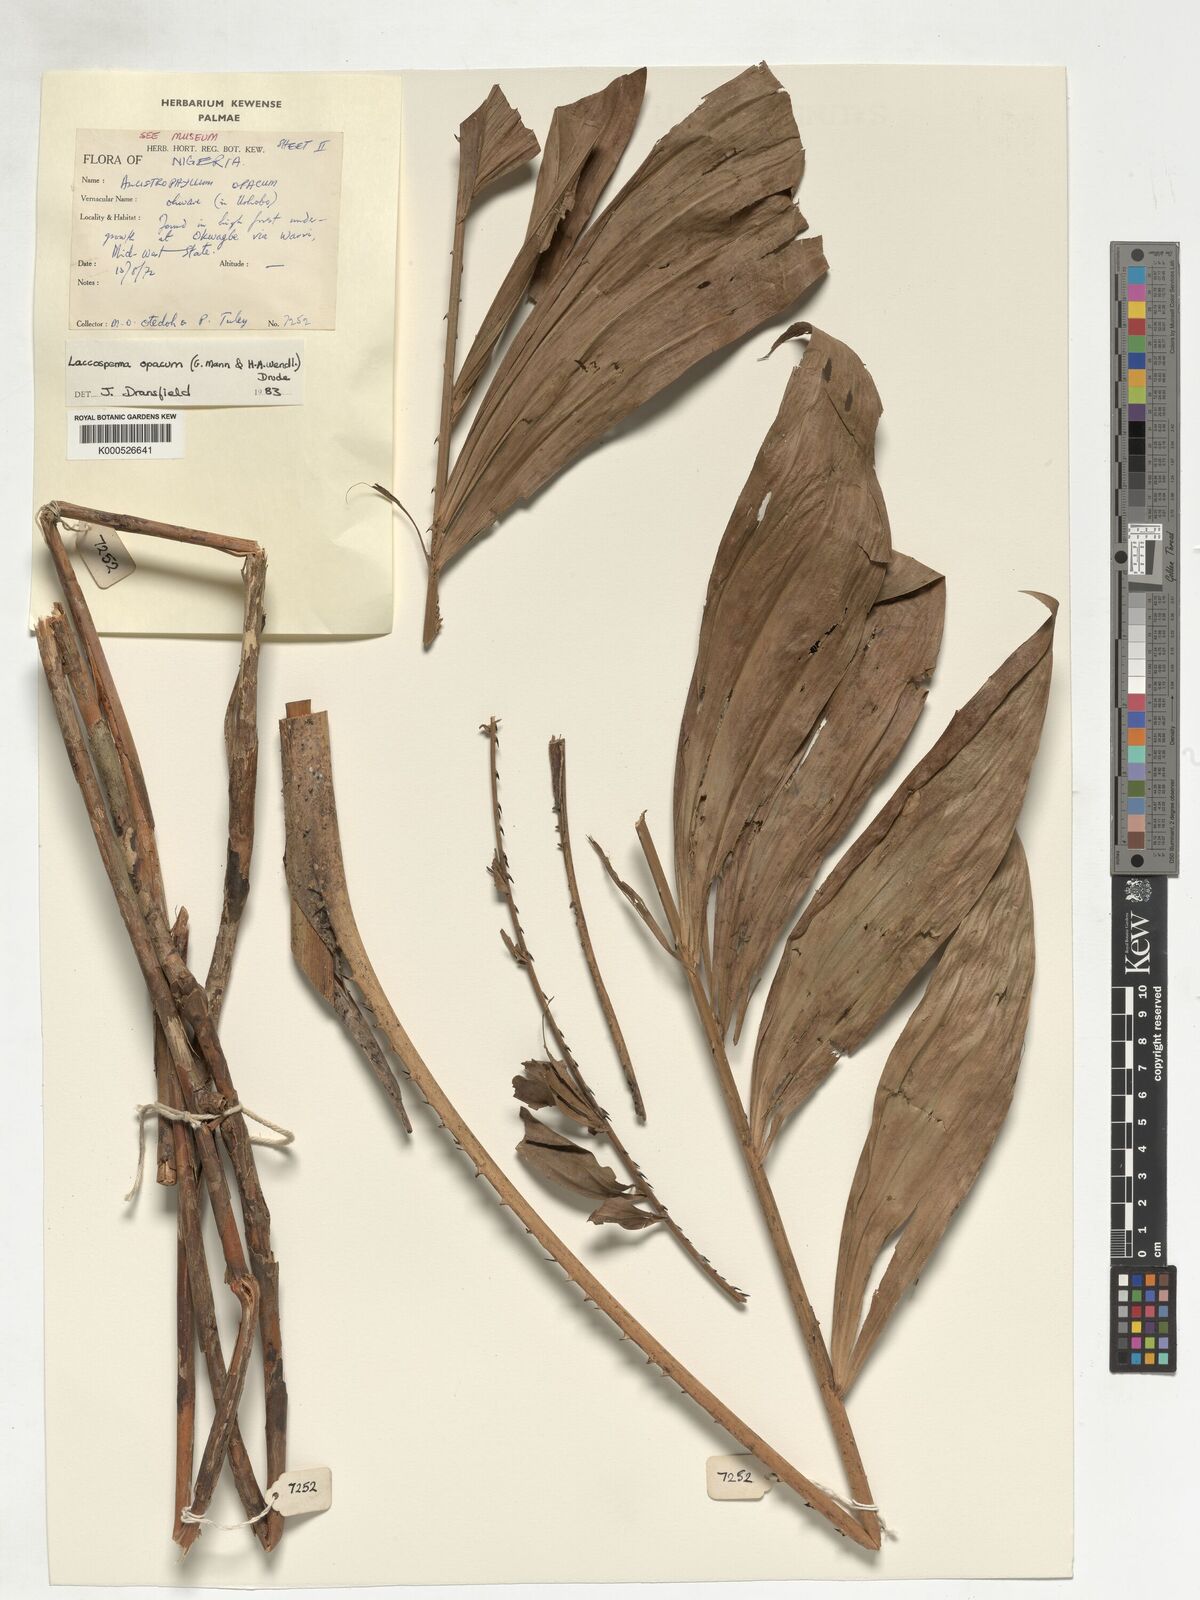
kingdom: Plantae
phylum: Tracheophyta
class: Liliopsida
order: Arecales
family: Arecaceae
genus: Laccosperma
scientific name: Laccosperma opacum
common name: Rattan
